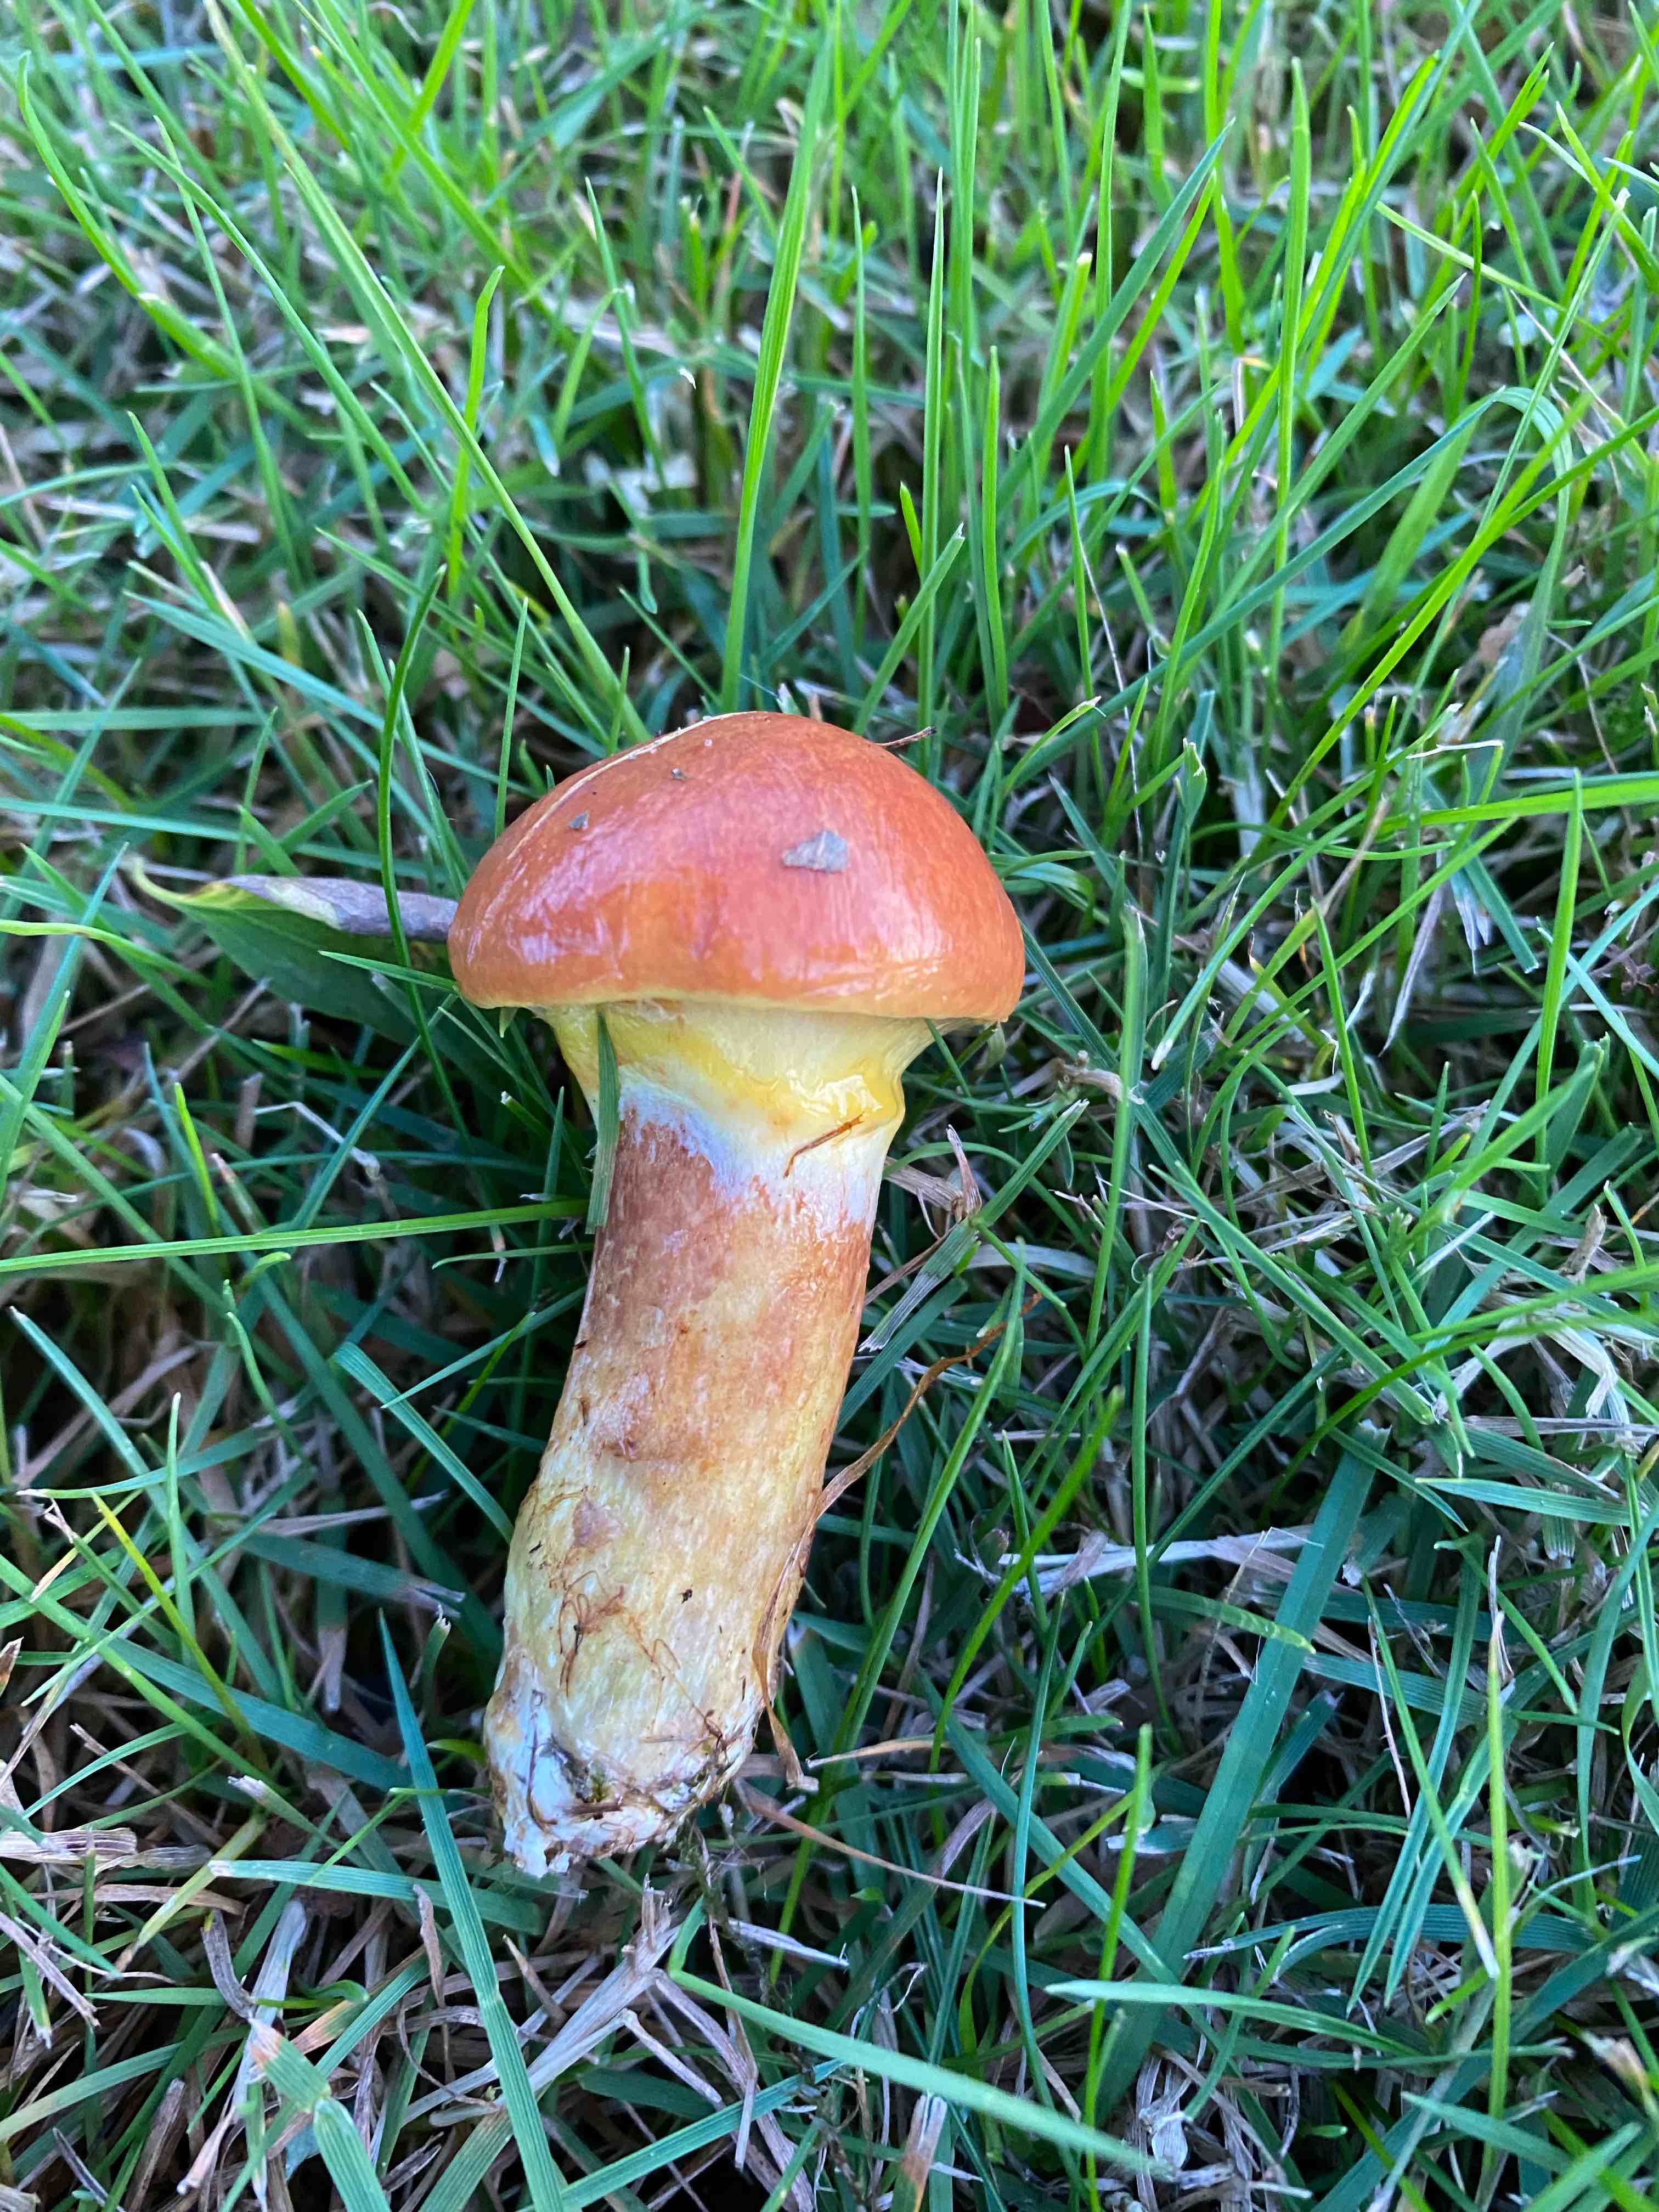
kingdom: Fungi
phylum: Basidiomycota
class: Agaricomycetes
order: Boletales
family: Suillaceae
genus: Suillus
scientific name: Suillus grevillei
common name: lærke-slimrørhat
